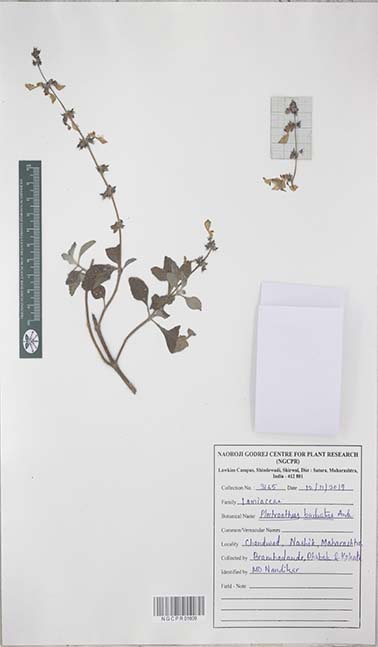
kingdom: Plantae
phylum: Tracheophyta
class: Magnoliopsida
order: Lamiales
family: Lamiaceae
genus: Coleus
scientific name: Coleus barbatus
